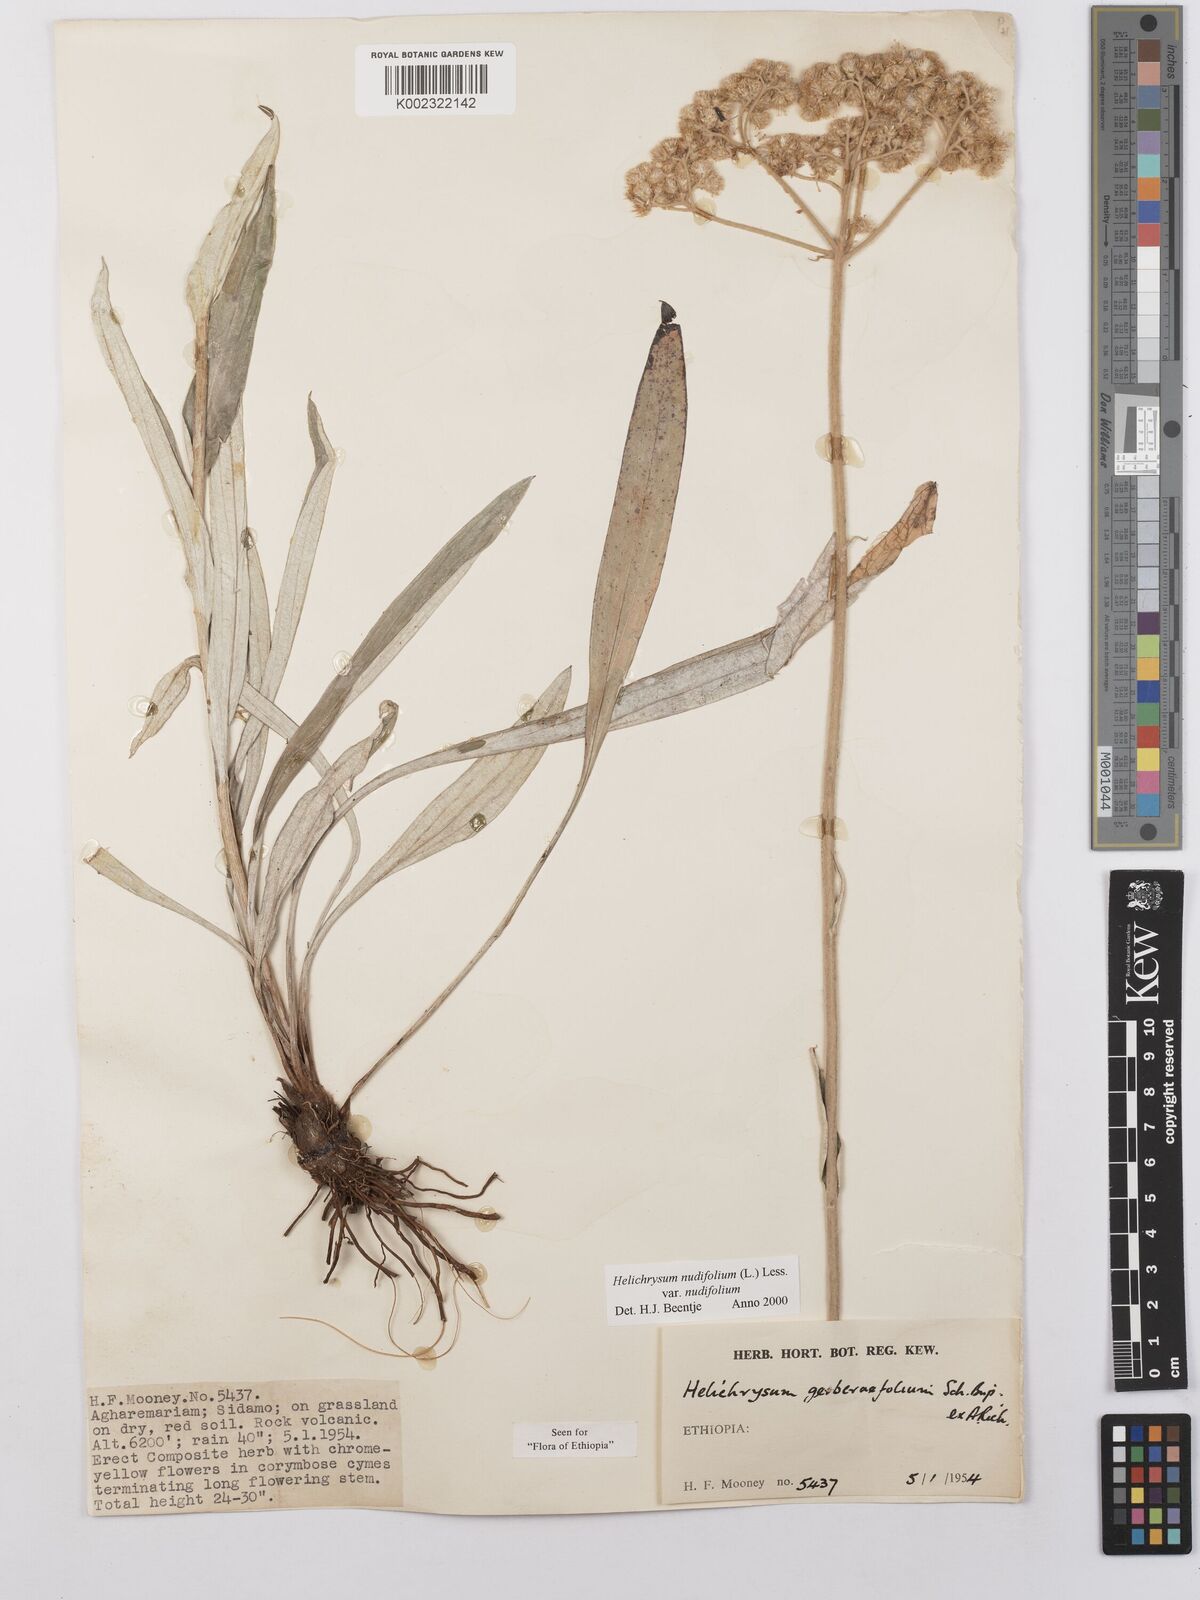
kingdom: Plantae
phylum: Tracheophyta
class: Magnoliopsida
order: Asterales
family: Asteraceae
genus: Helichrysum
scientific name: Helichrysum nudifolium
